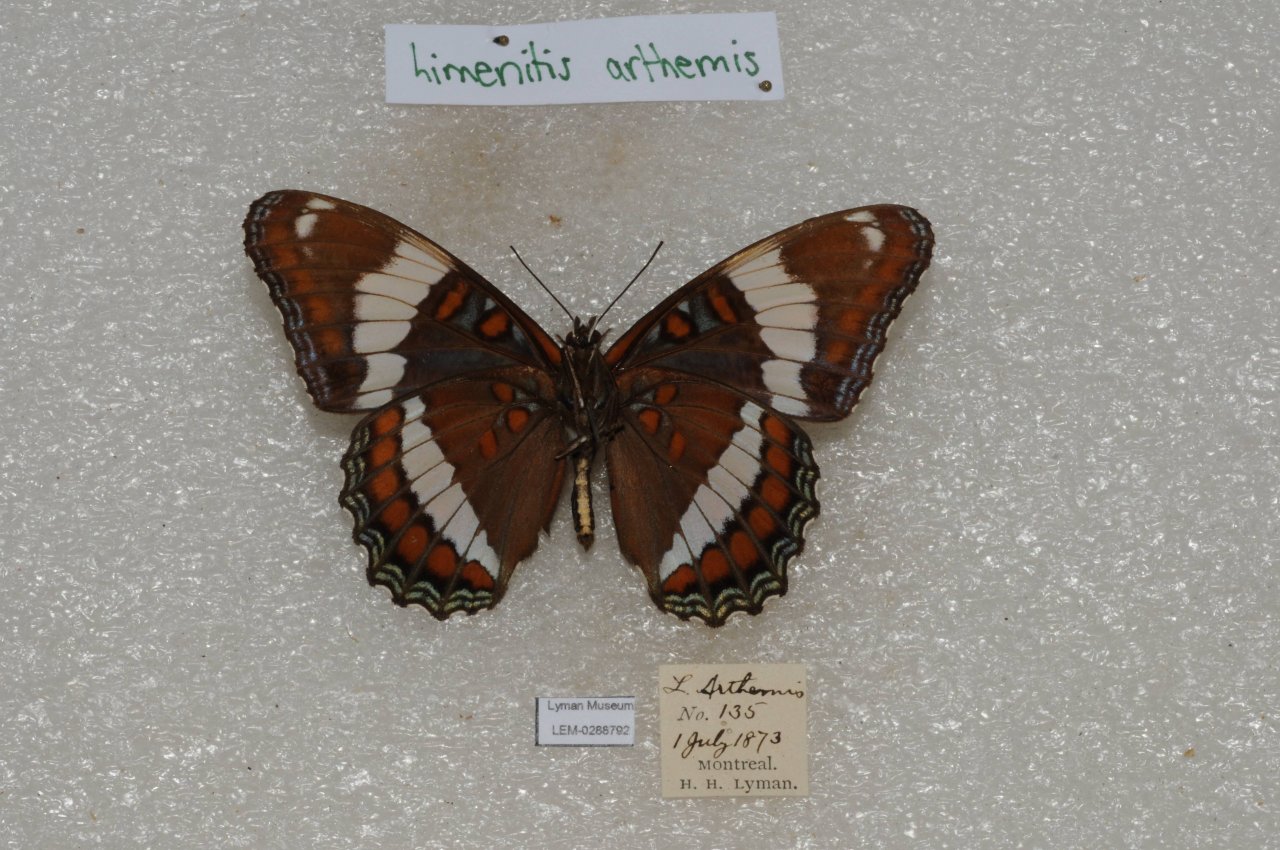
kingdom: Animalia
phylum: Arthropoda
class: Insecta
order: Lepidoptera
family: Nymphalidae
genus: Limenitis
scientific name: Limenitis arthemis
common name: Red-spotted Admiral
